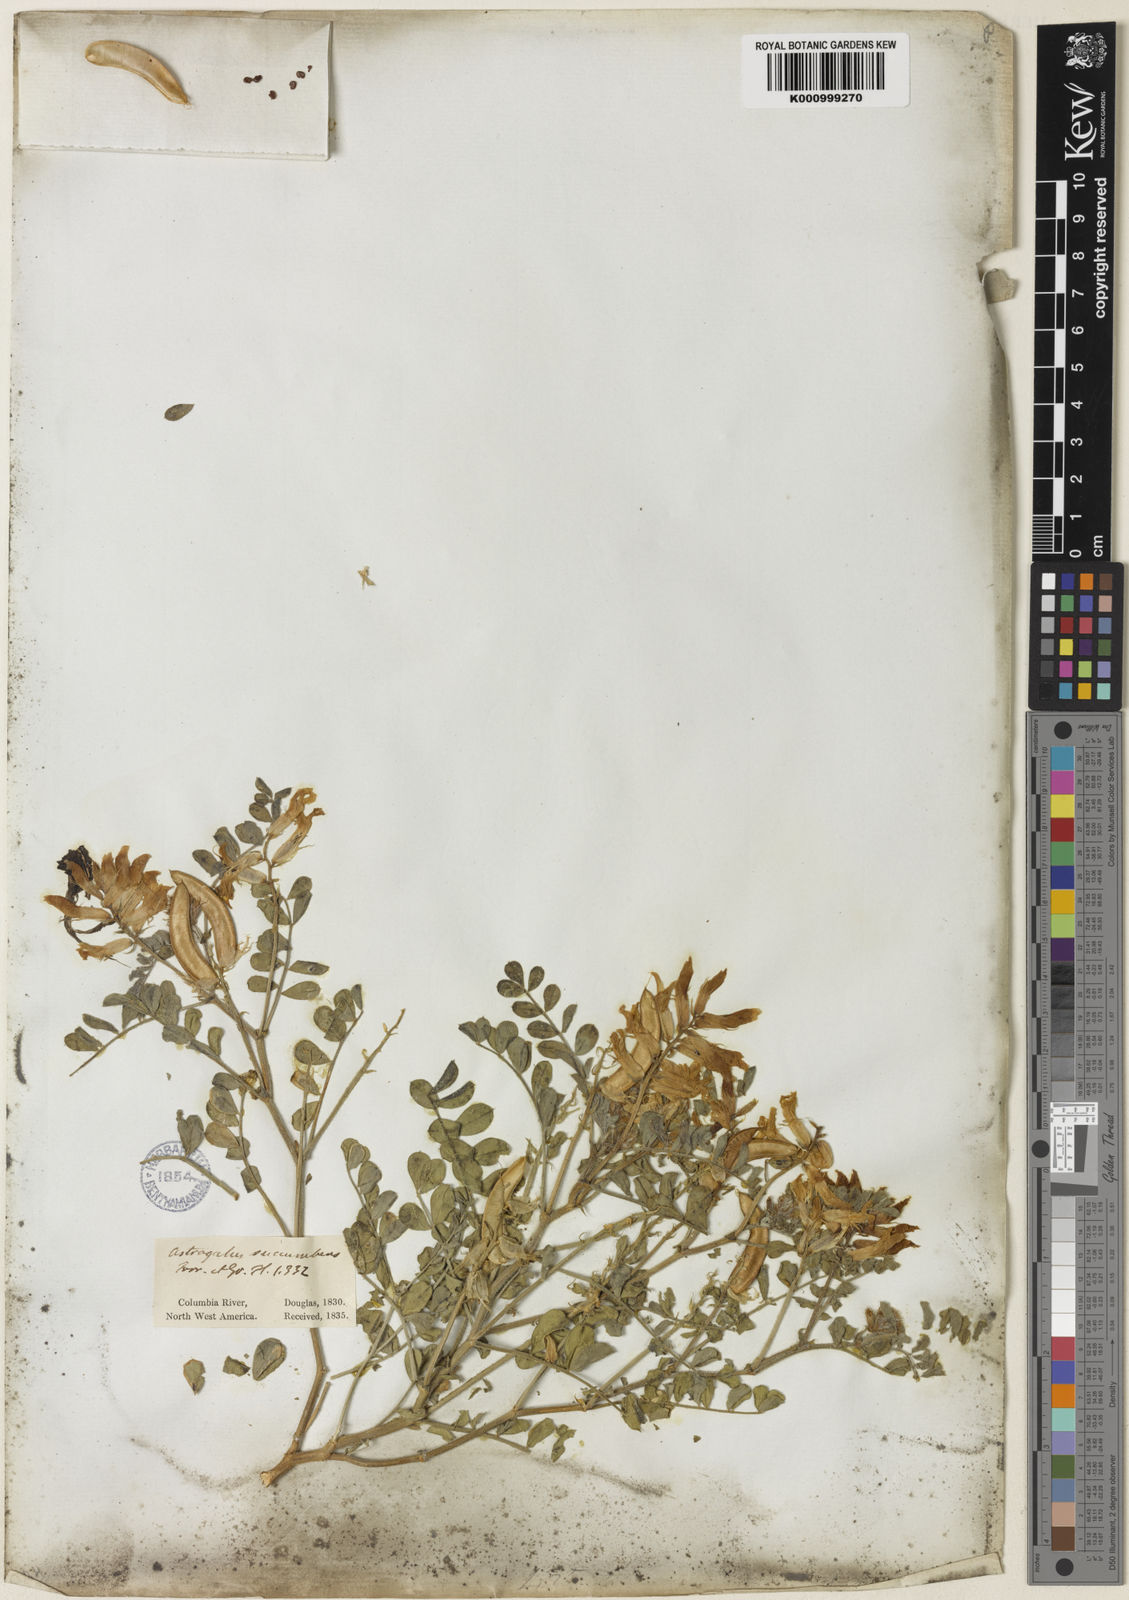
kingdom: Plantae
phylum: Tracheophyta
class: Magnoliopsida
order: Fabales
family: Fabaceae
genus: Astragalus
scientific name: Astragalus
